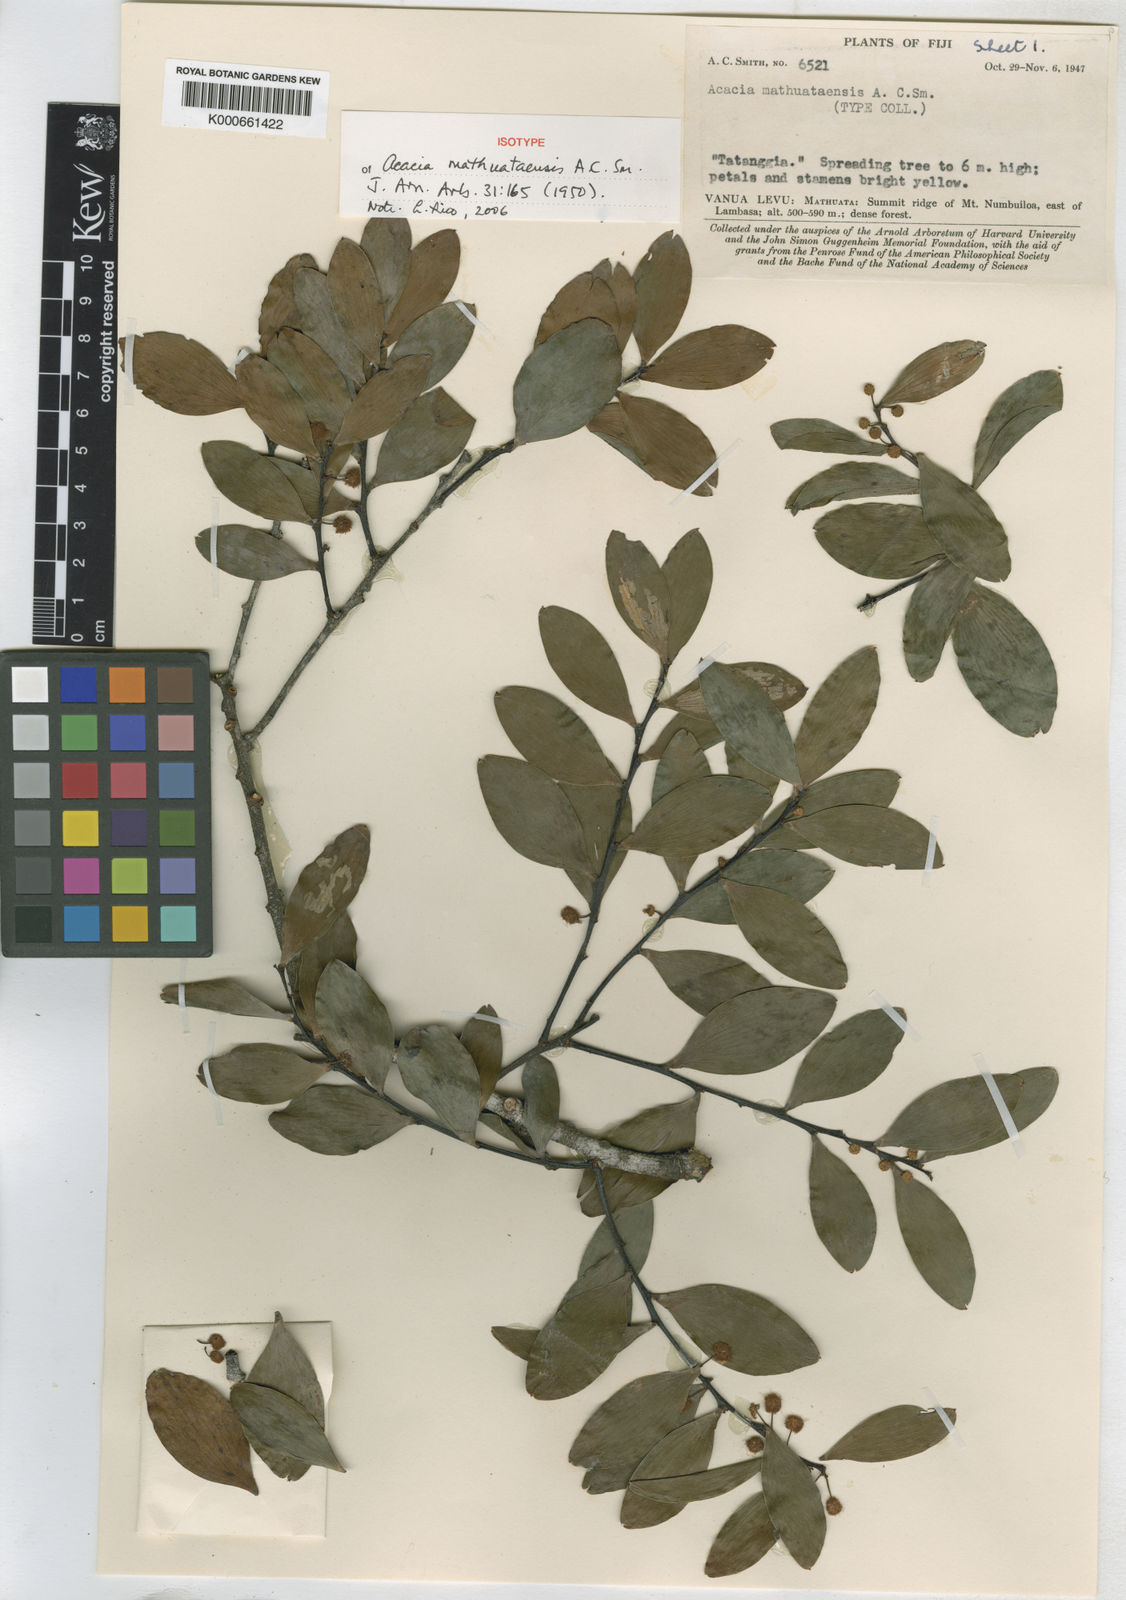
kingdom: Plantae
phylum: Tracheophyta
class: Magnoliopsida
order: Fabales
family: Fabaceae
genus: Acacia
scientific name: Acacia mathuataensis
